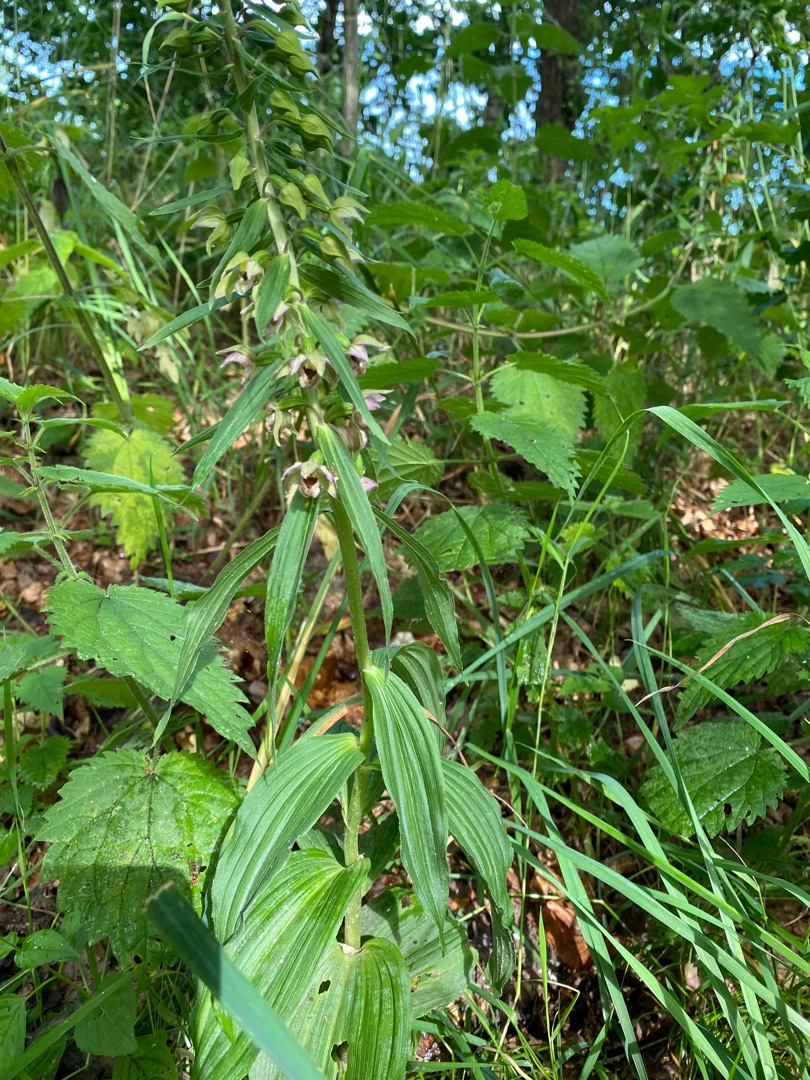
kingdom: Plantae
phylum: Tracheophyta
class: Liliopsida
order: Asparagales
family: Orchidaceae
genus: Epipactis
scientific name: Epipactis helleborine
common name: Skov-hullæbe
